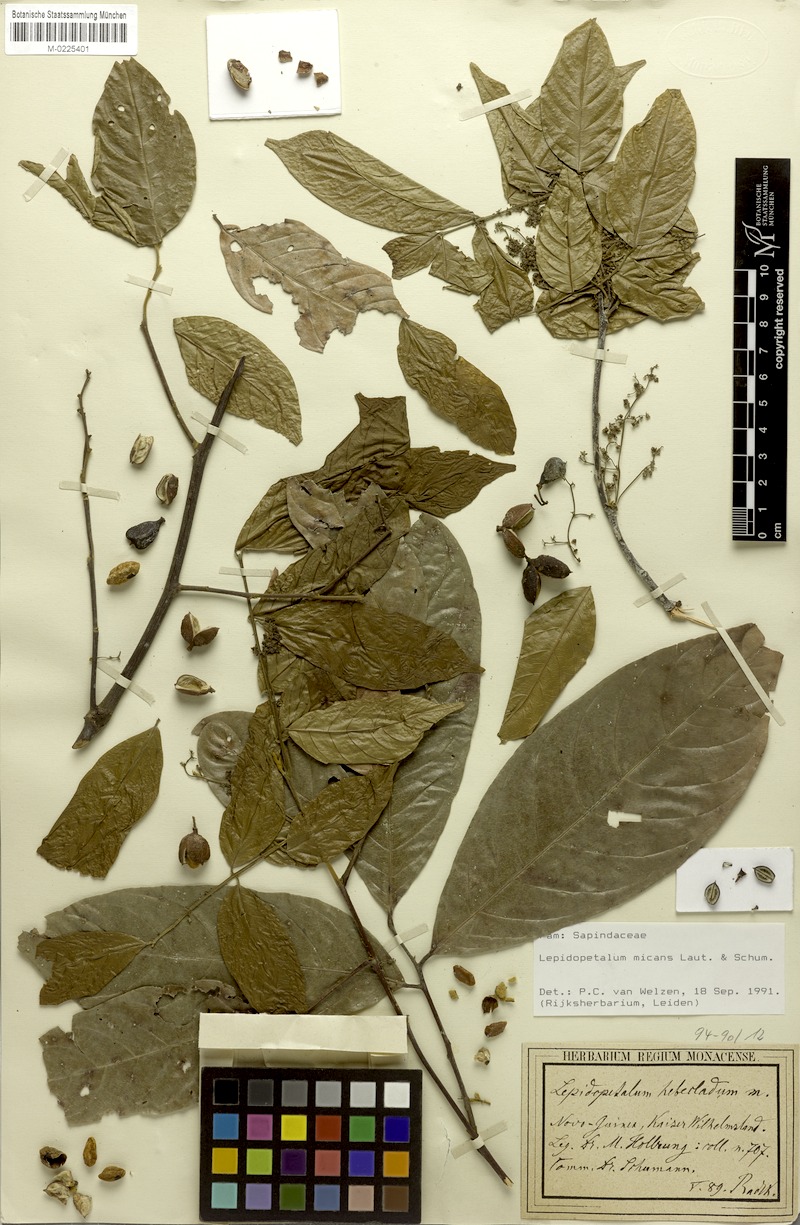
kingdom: Plantae
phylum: Tracheophyta
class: Magnoliopsida
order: Sapindales
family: Sapindaceae
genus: Lepidopetalum
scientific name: Lepidopetalum micans
